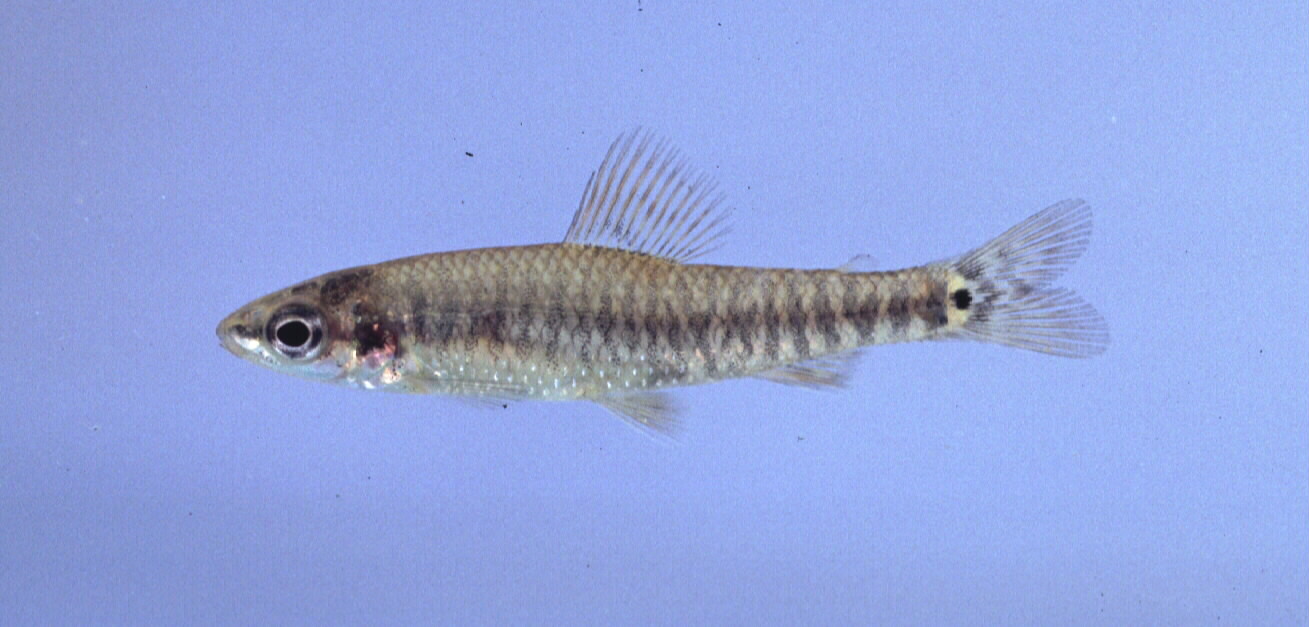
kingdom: Animalia
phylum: Chordata
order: Characiformes
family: Distichodontidae
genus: Nannocharax
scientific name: Nannocharax multifasciatus
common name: Multibar citharine
